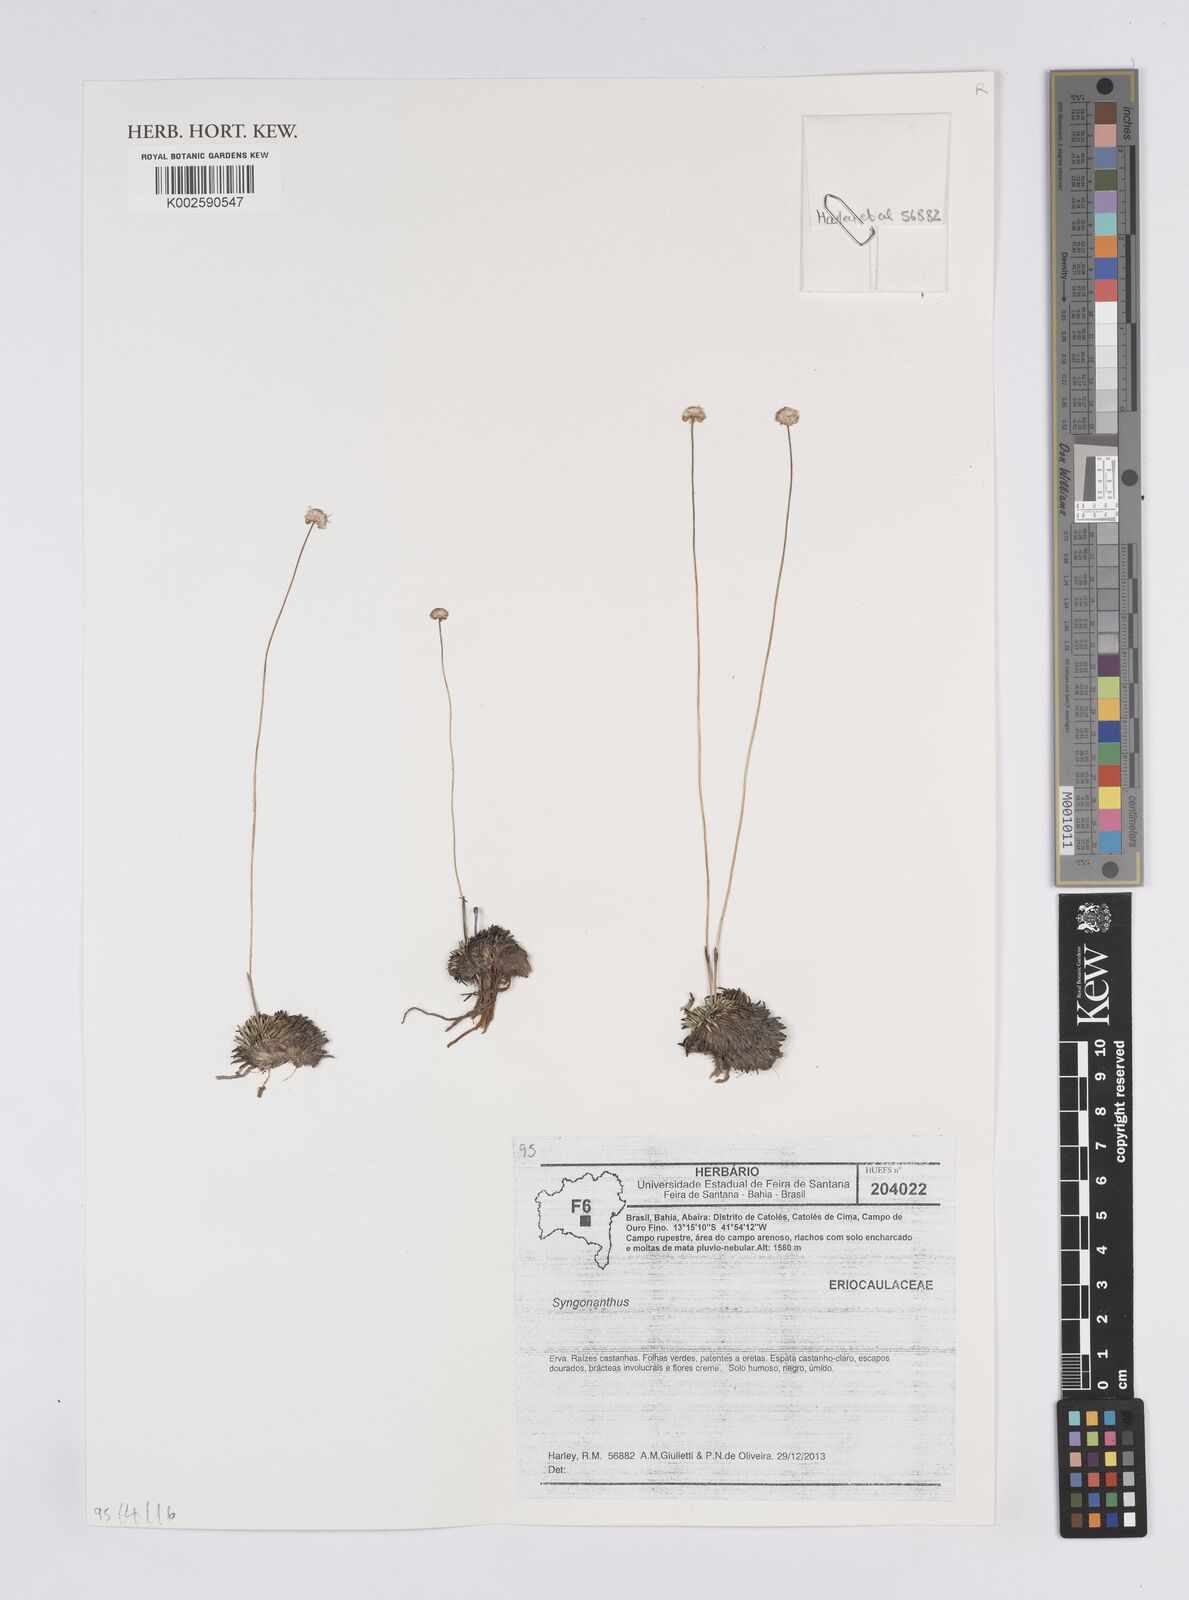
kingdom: Plantae
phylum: Tracheophyta
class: Liliopsida
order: Poales
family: Eriocaulaceae
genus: Syngonanthus
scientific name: Syngonanthus
